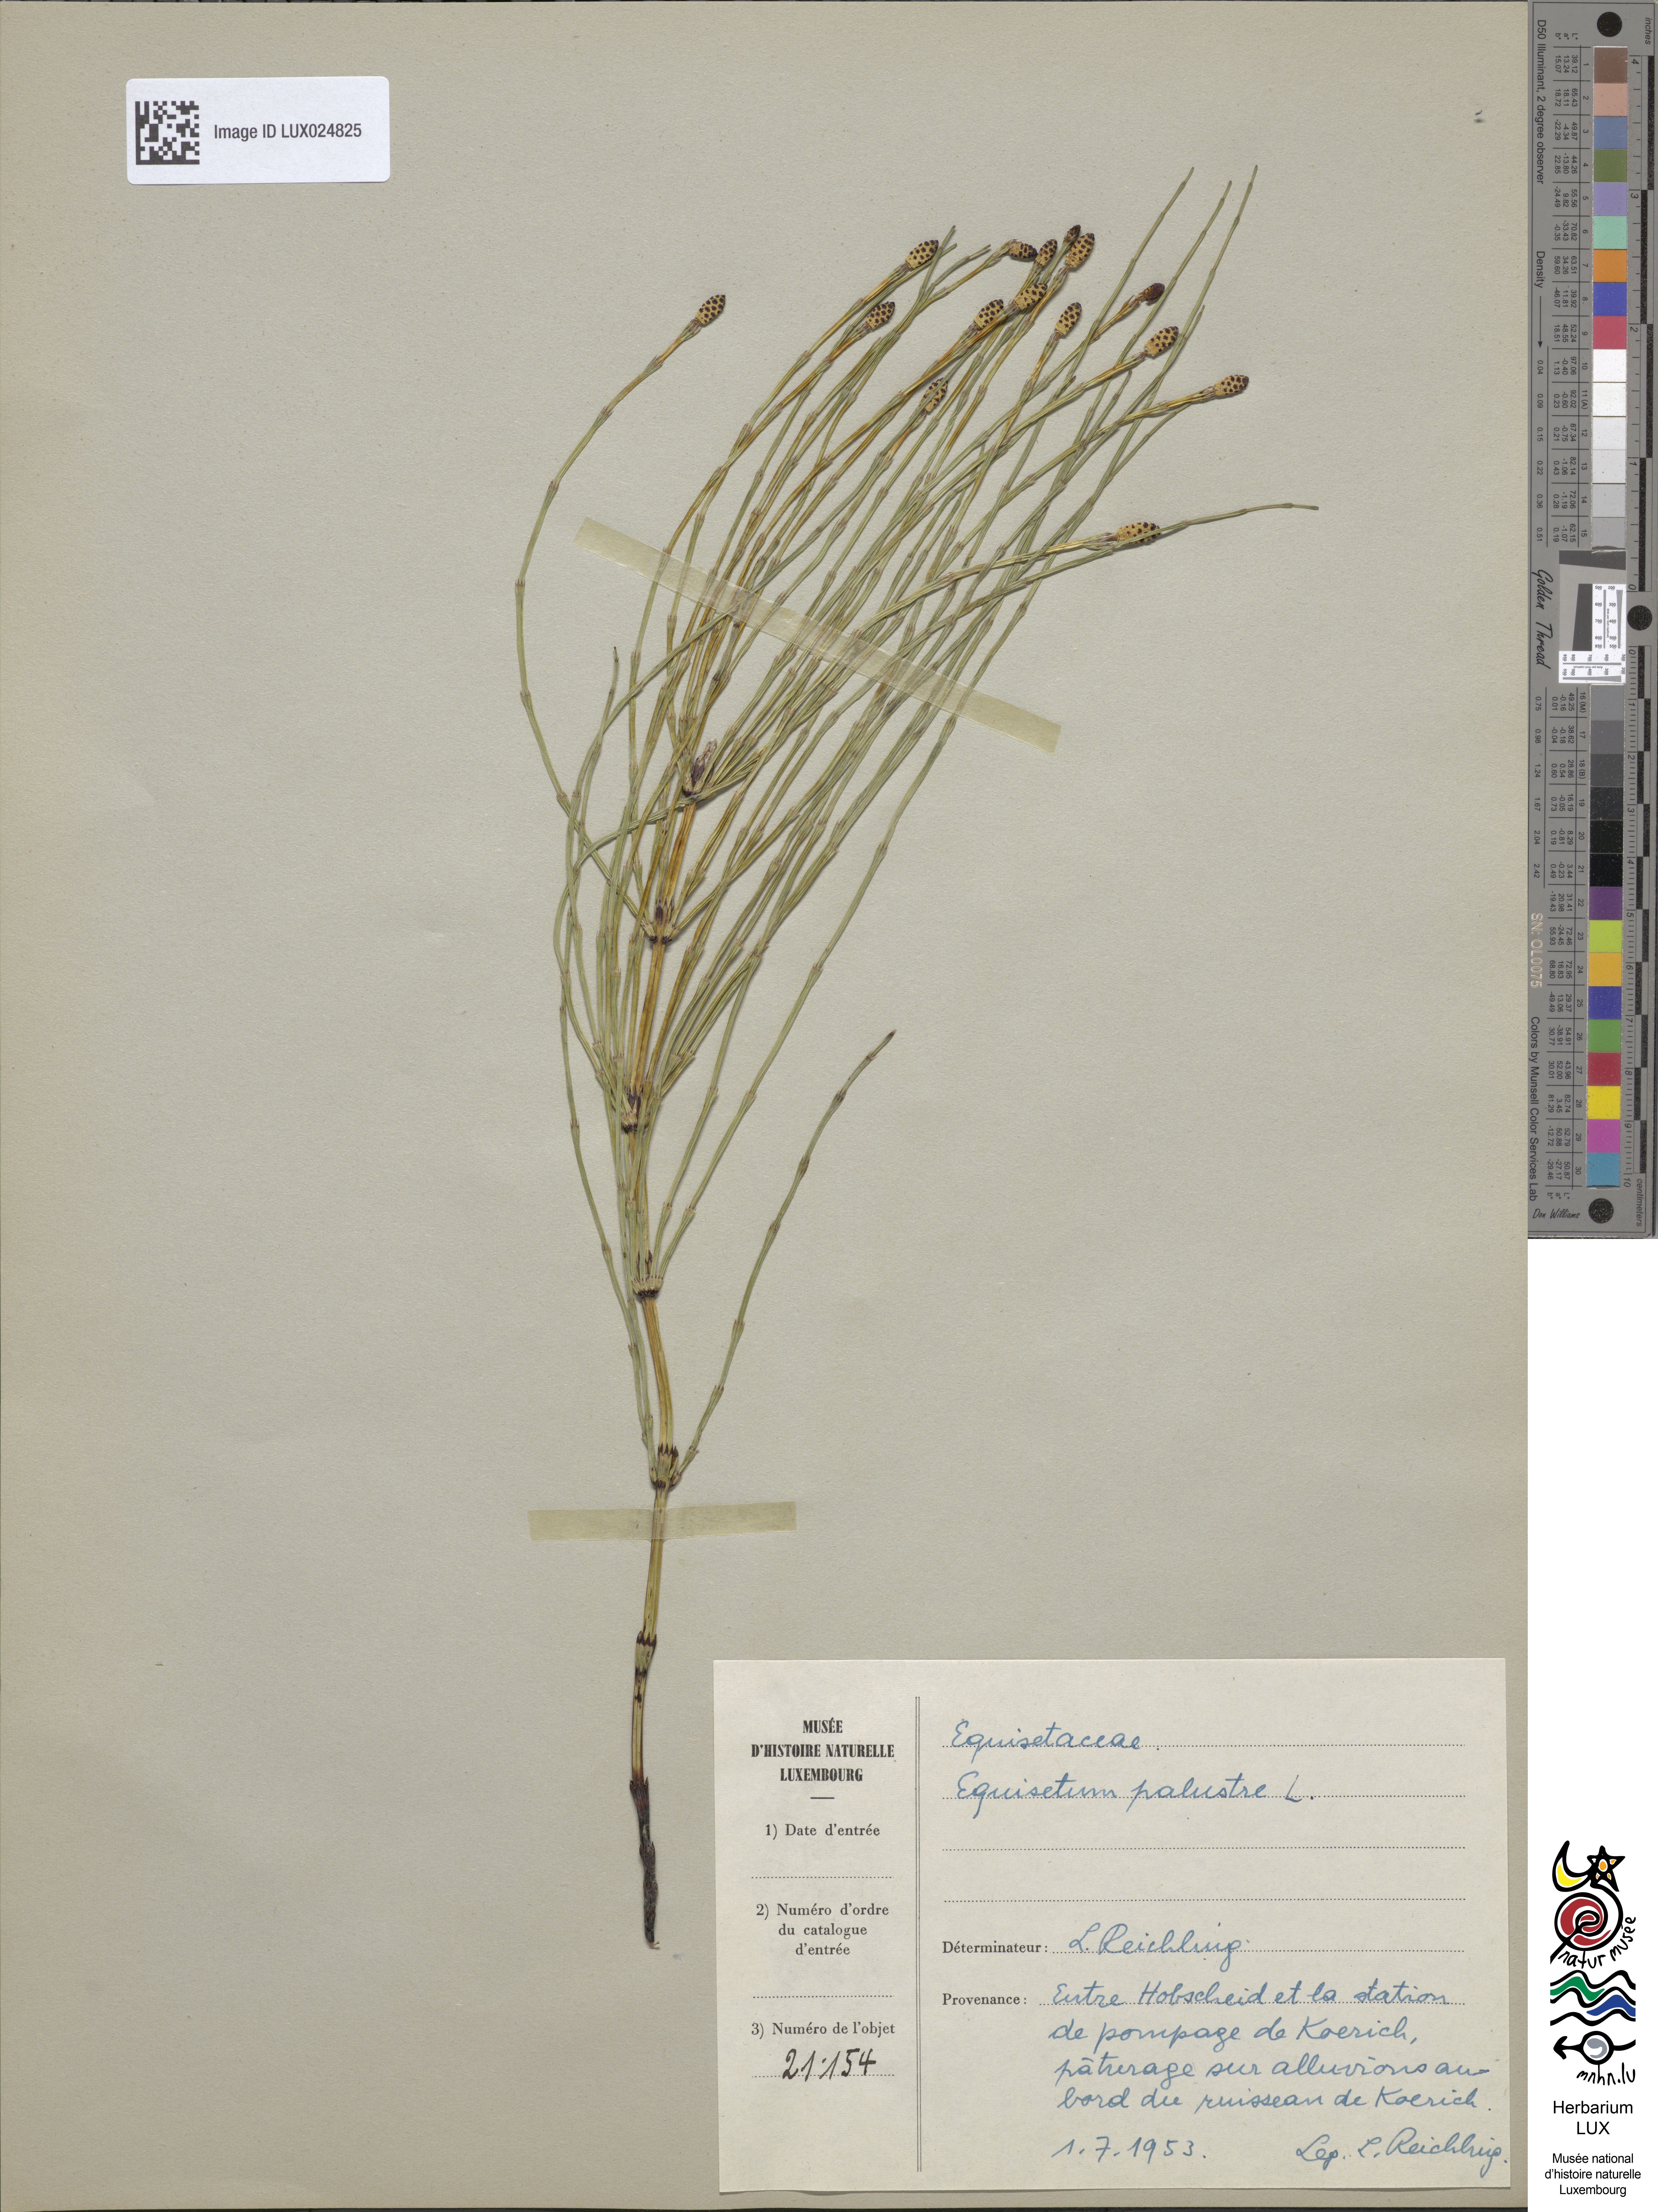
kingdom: Plantae
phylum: Tracheophyta
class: Polypodiopsida
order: Equisetales
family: Equisetaceae
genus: Equisetum
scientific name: Equisetum palustre
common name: Marsh horsetail
